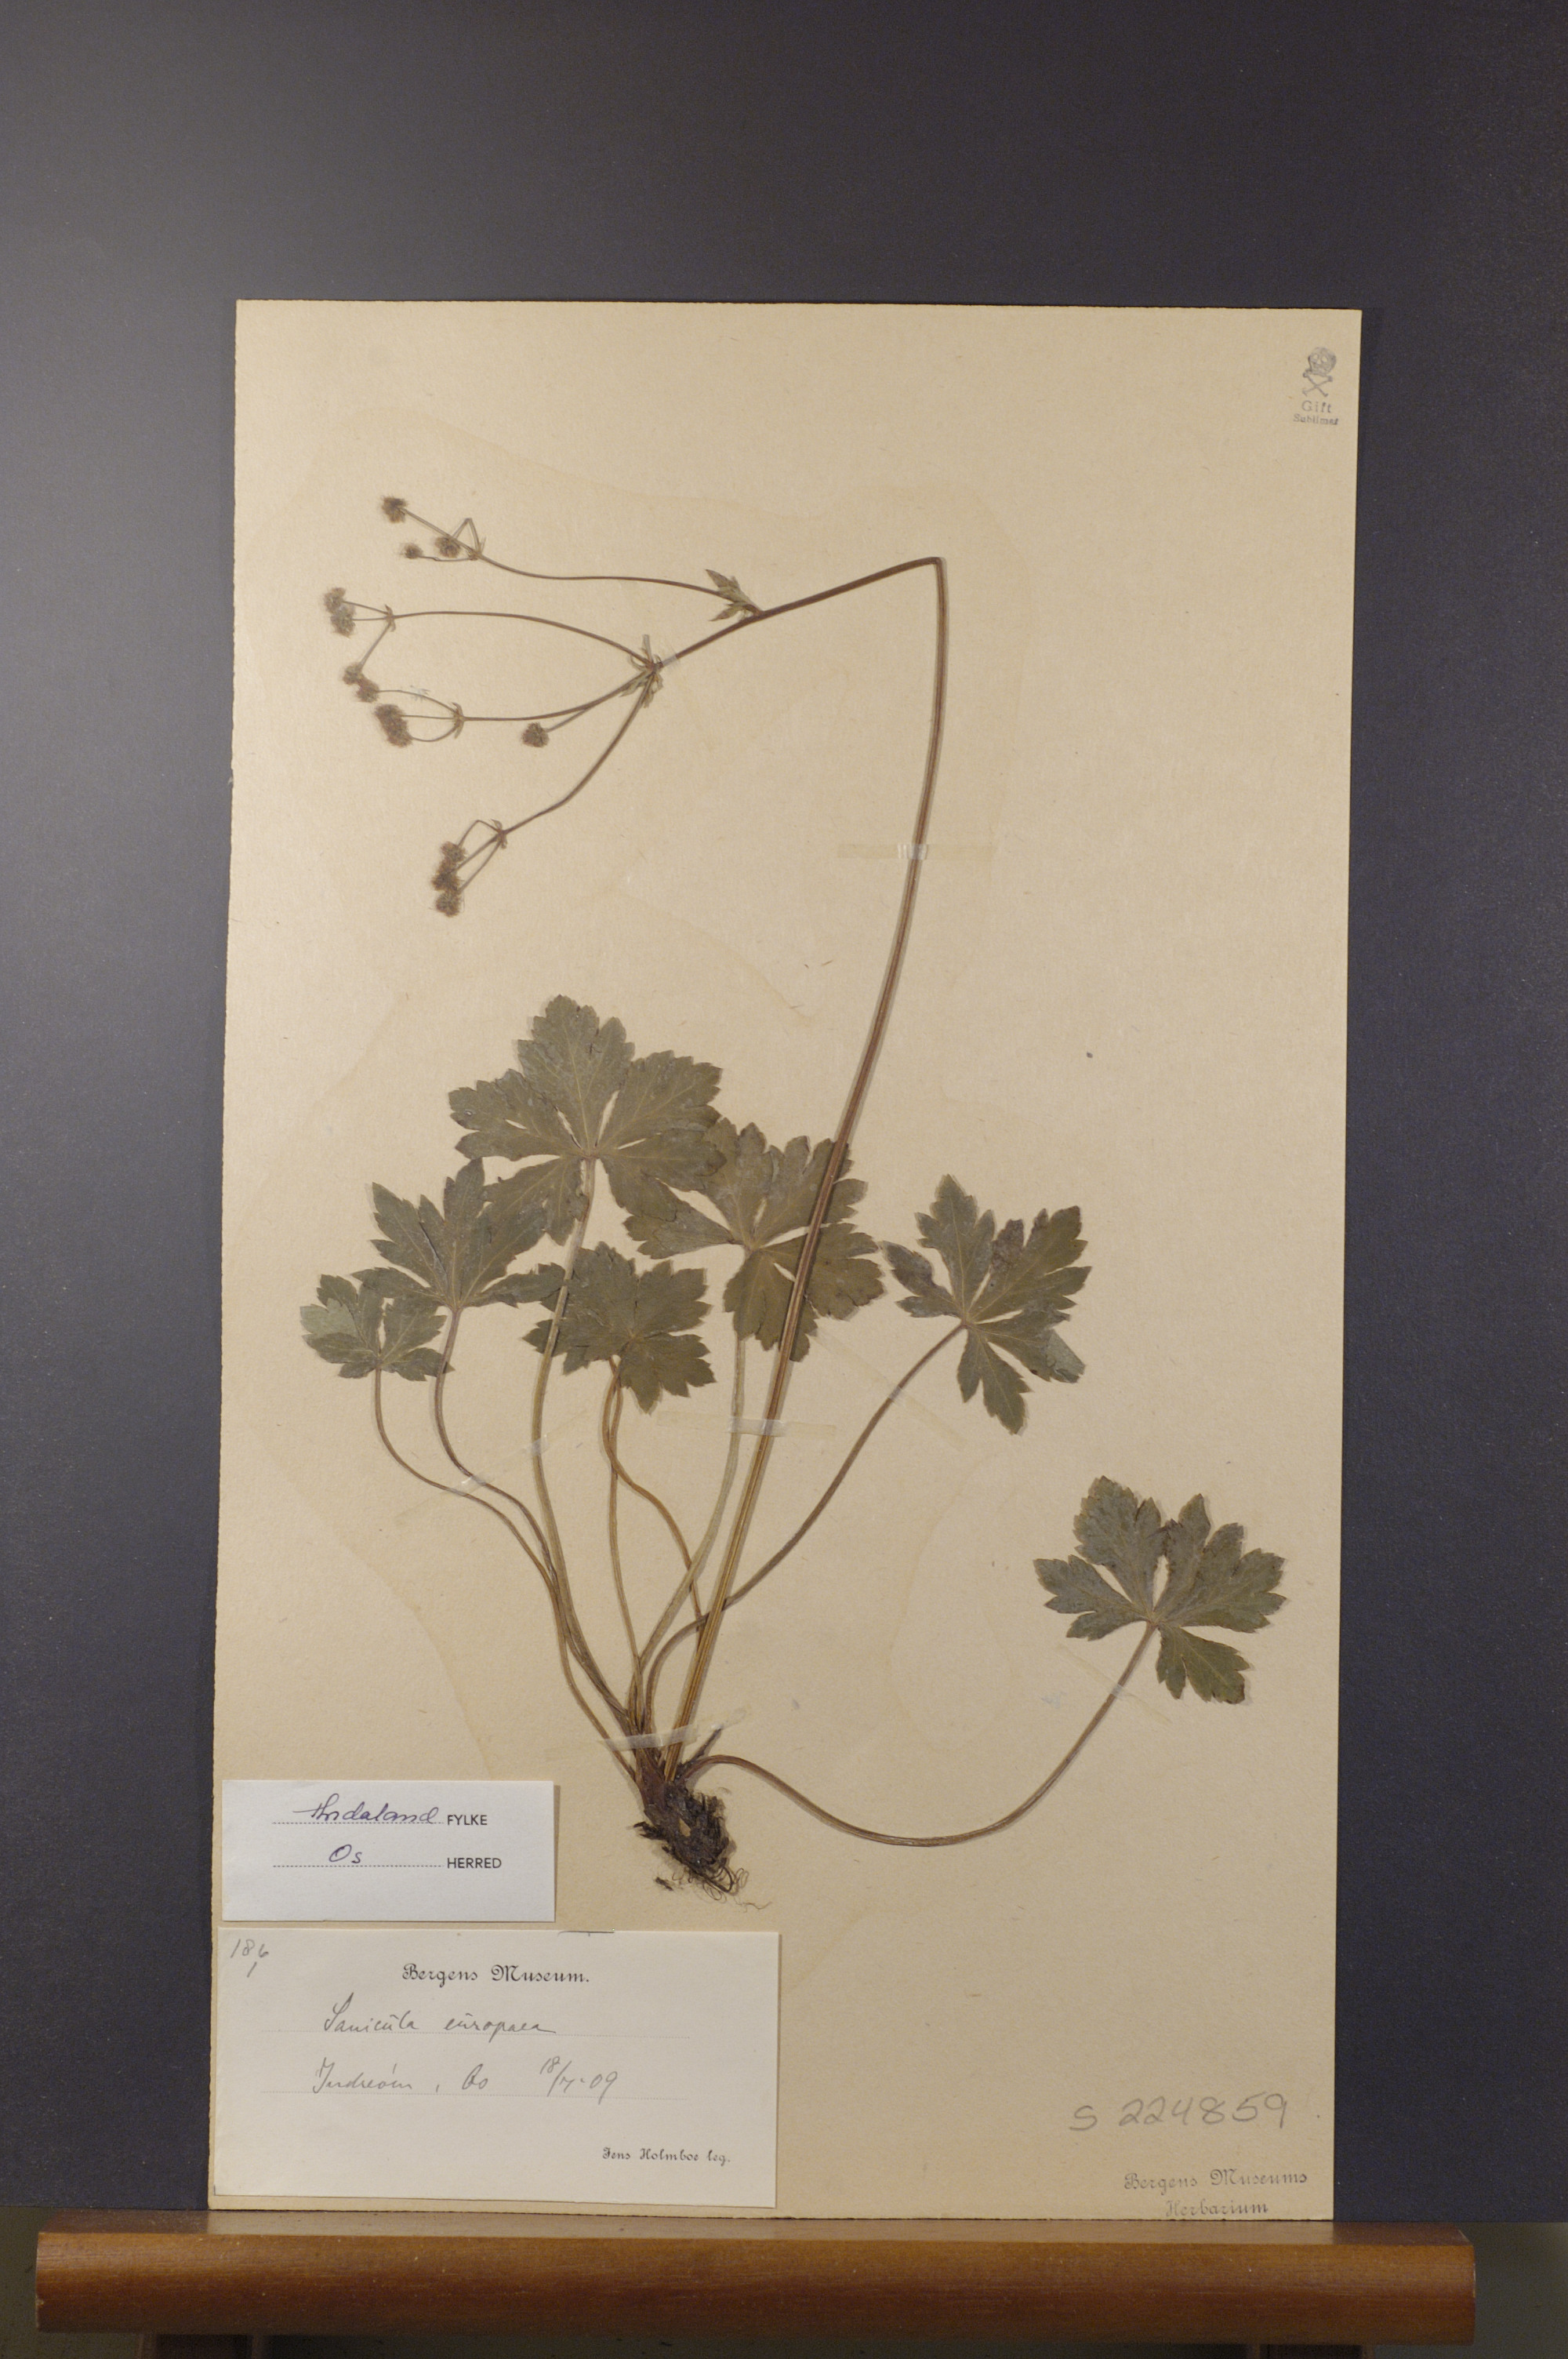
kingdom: Plantae
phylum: Tracheophyta
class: Magnoliopsida
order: Apiales
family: Apiaceae
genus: Sanicula
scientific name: Sanicula europaea
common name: Sanicle
